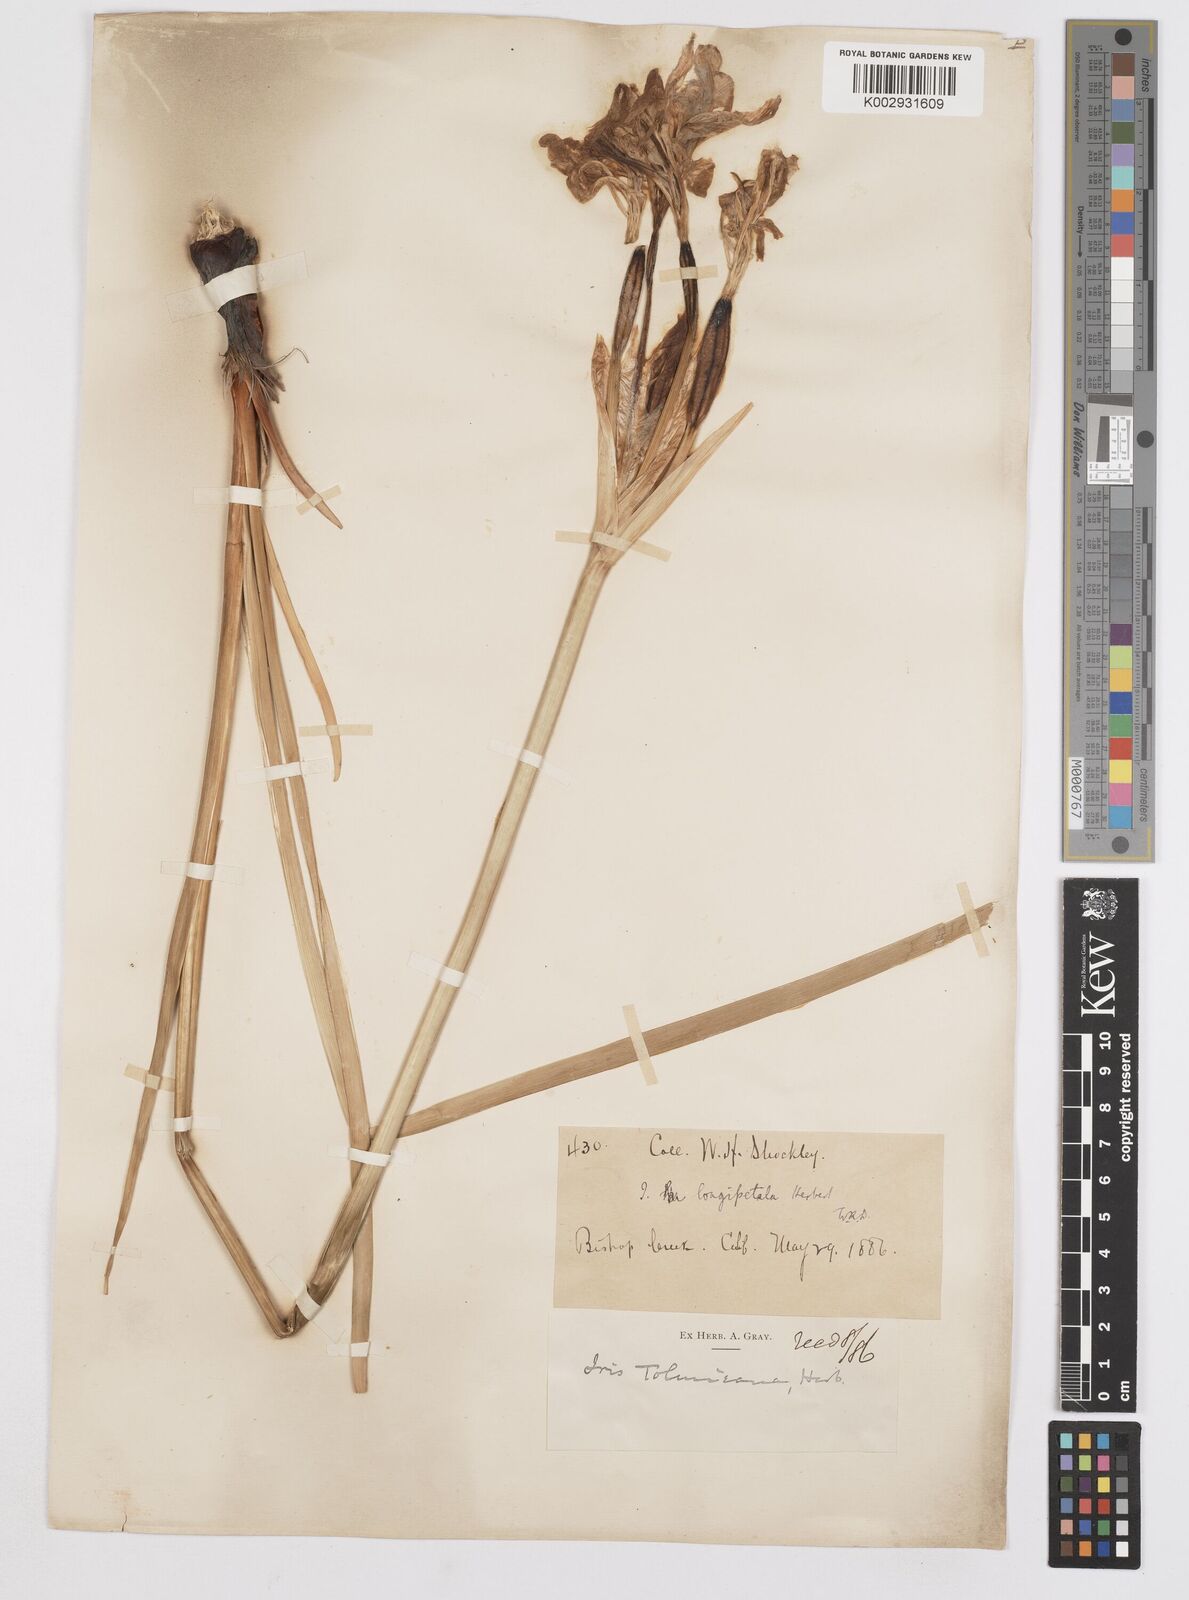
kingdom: Plantae
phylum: Tracheophyta
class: Liliopsida
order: Asparagales
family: Iridaceae
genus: Iris
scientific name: Iris longipetala
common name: Long-petal iris
